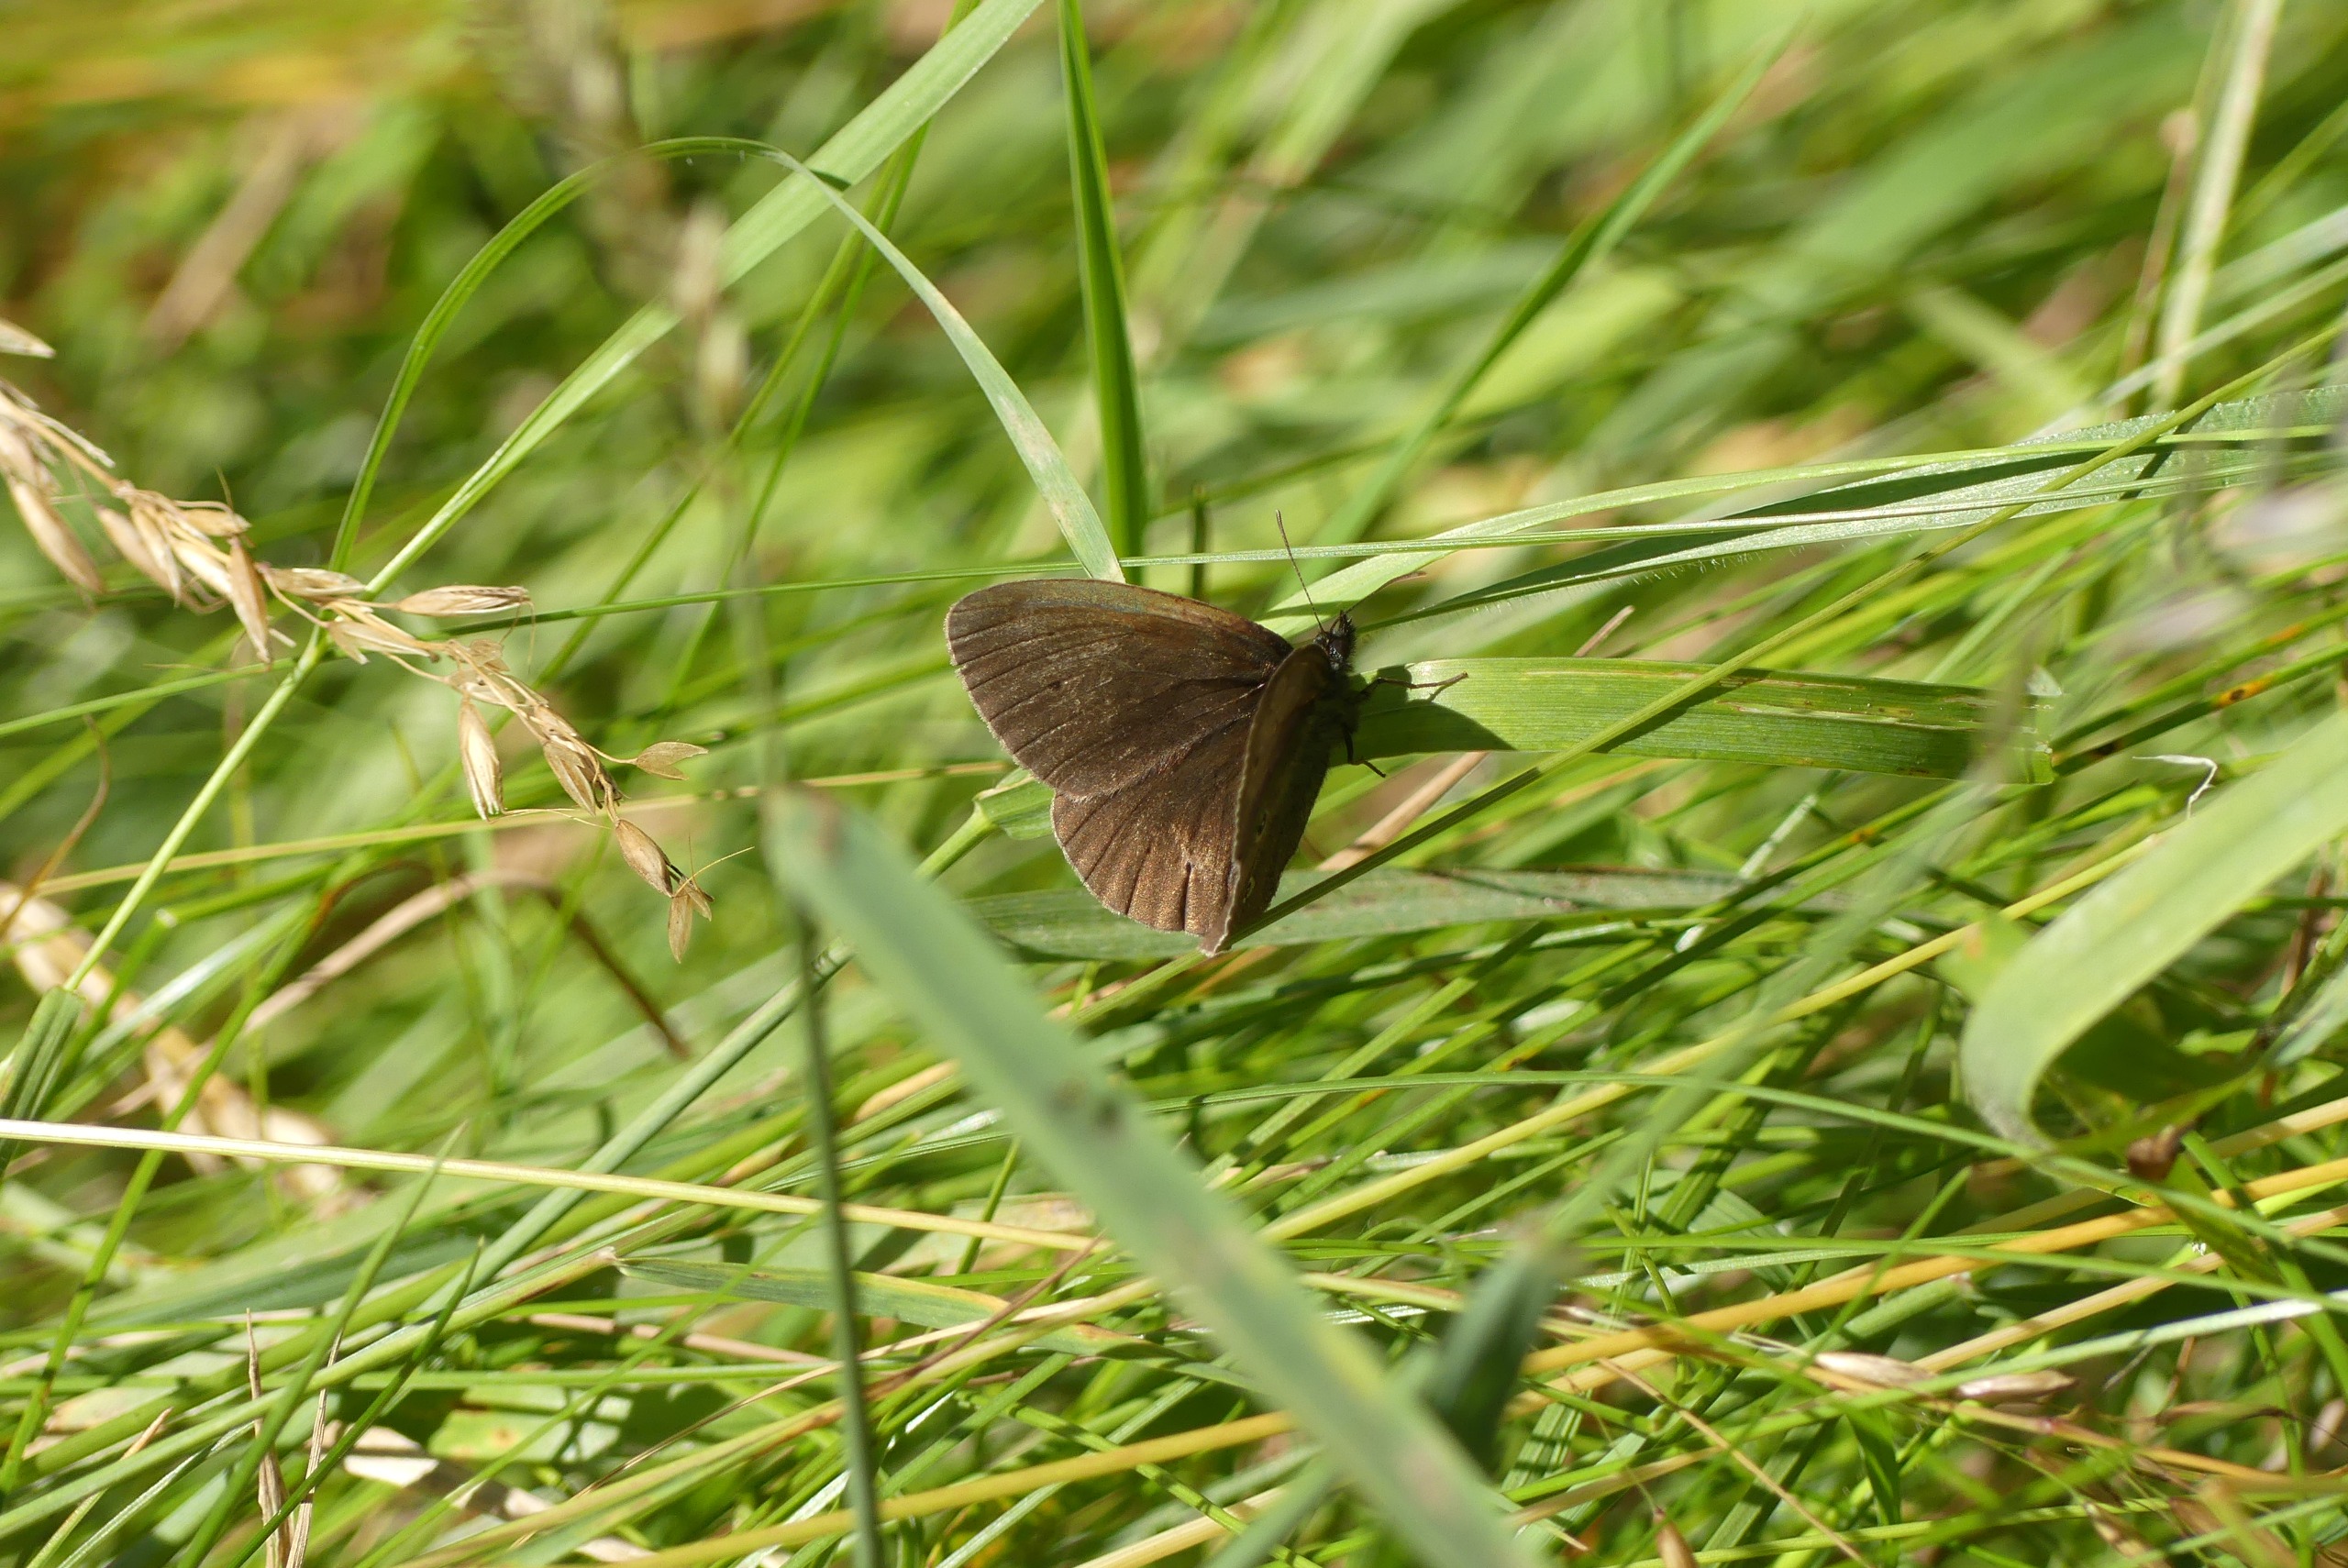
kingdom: Animalia
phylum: Arthropoda
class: Insecta
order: Lepidoptera
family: Nymphalidae
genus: Aphantopus
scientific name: Aphantopus hyperantus
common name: Engrandøje
